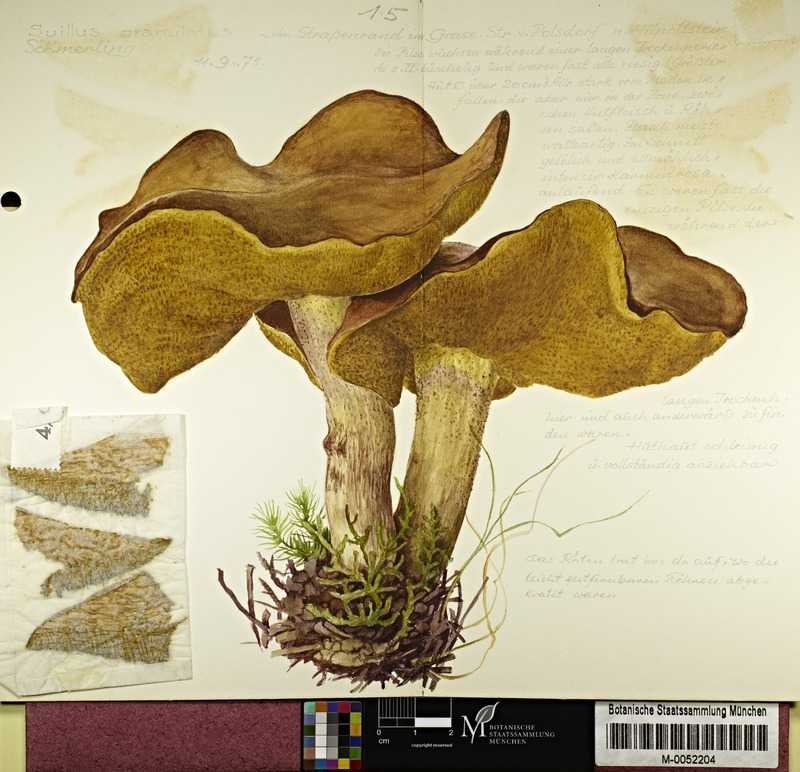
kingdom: Fungi
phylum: Basidiomycota
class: Agaricomycetes
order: Boletales
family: Suillaceae
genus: Suillus
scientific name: Suillus granulatus
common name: Weeping bolete
